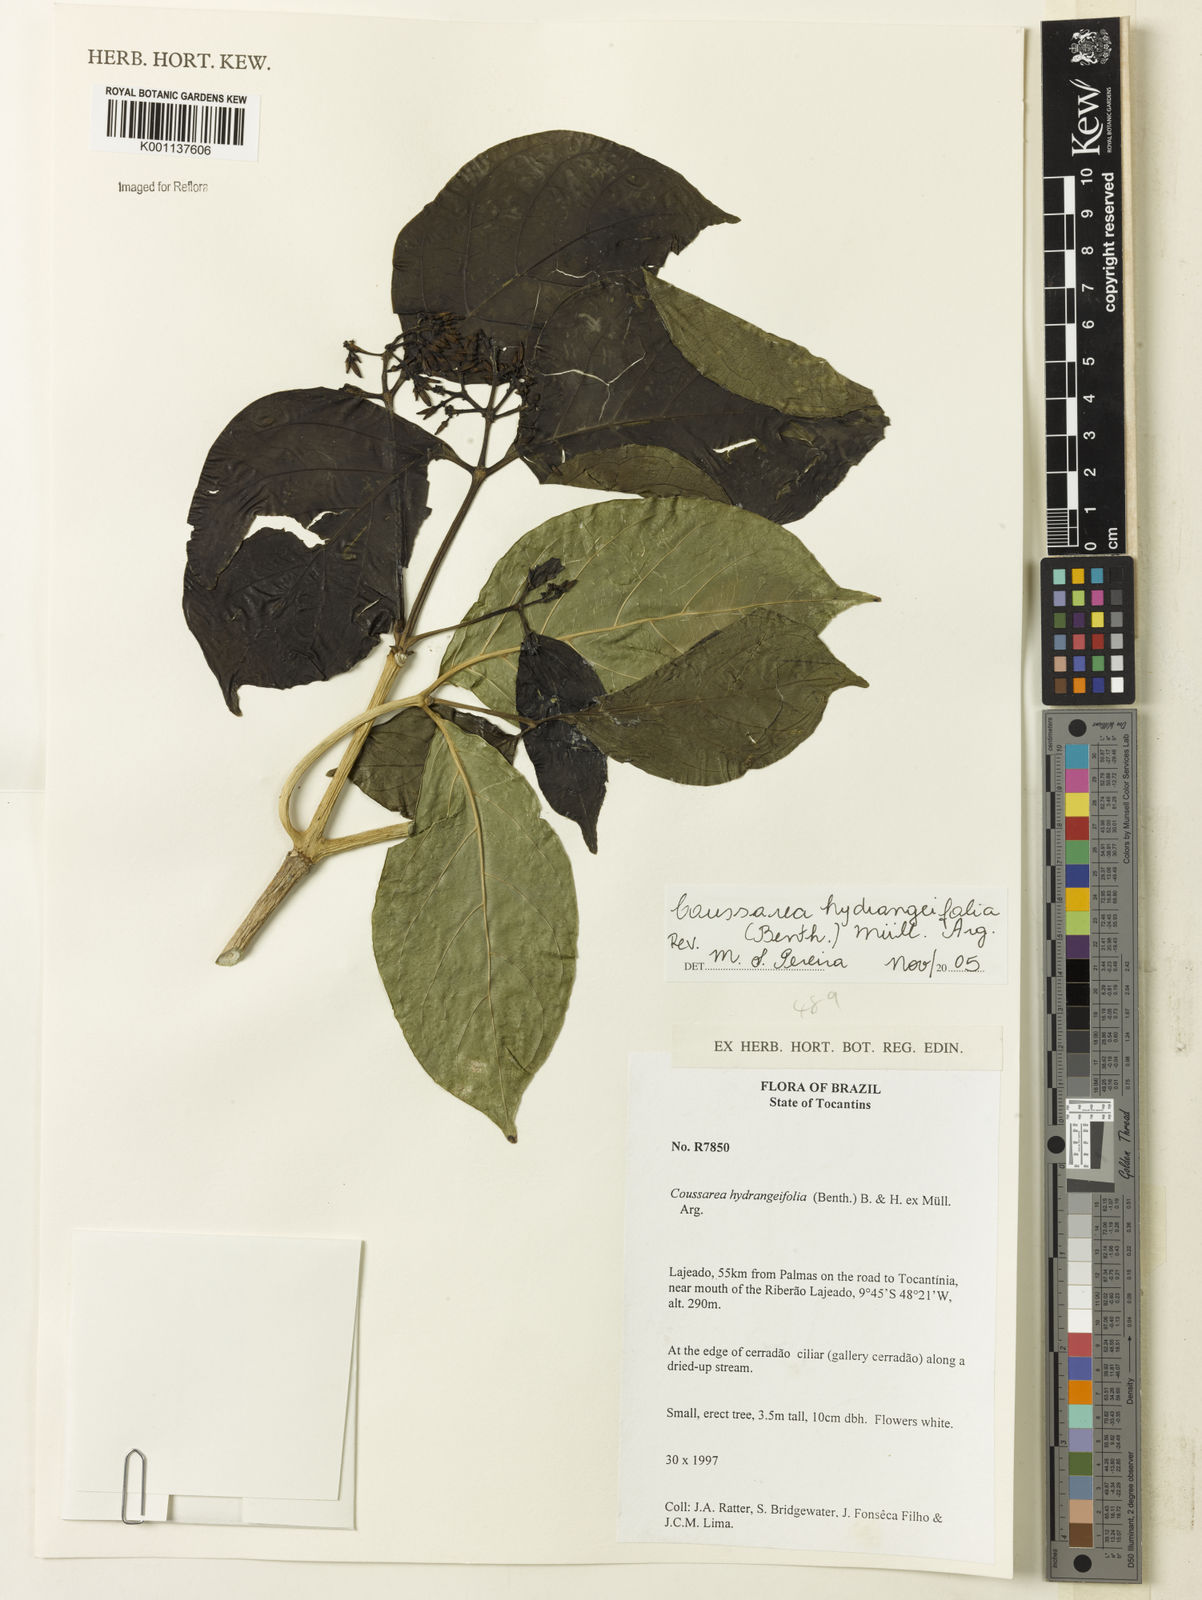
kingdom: Plantae
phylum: Tracheophyta
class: Magnoliopsida
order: Gentianales
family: Rubiaceae
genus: Coussarea
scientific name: Coussarea
